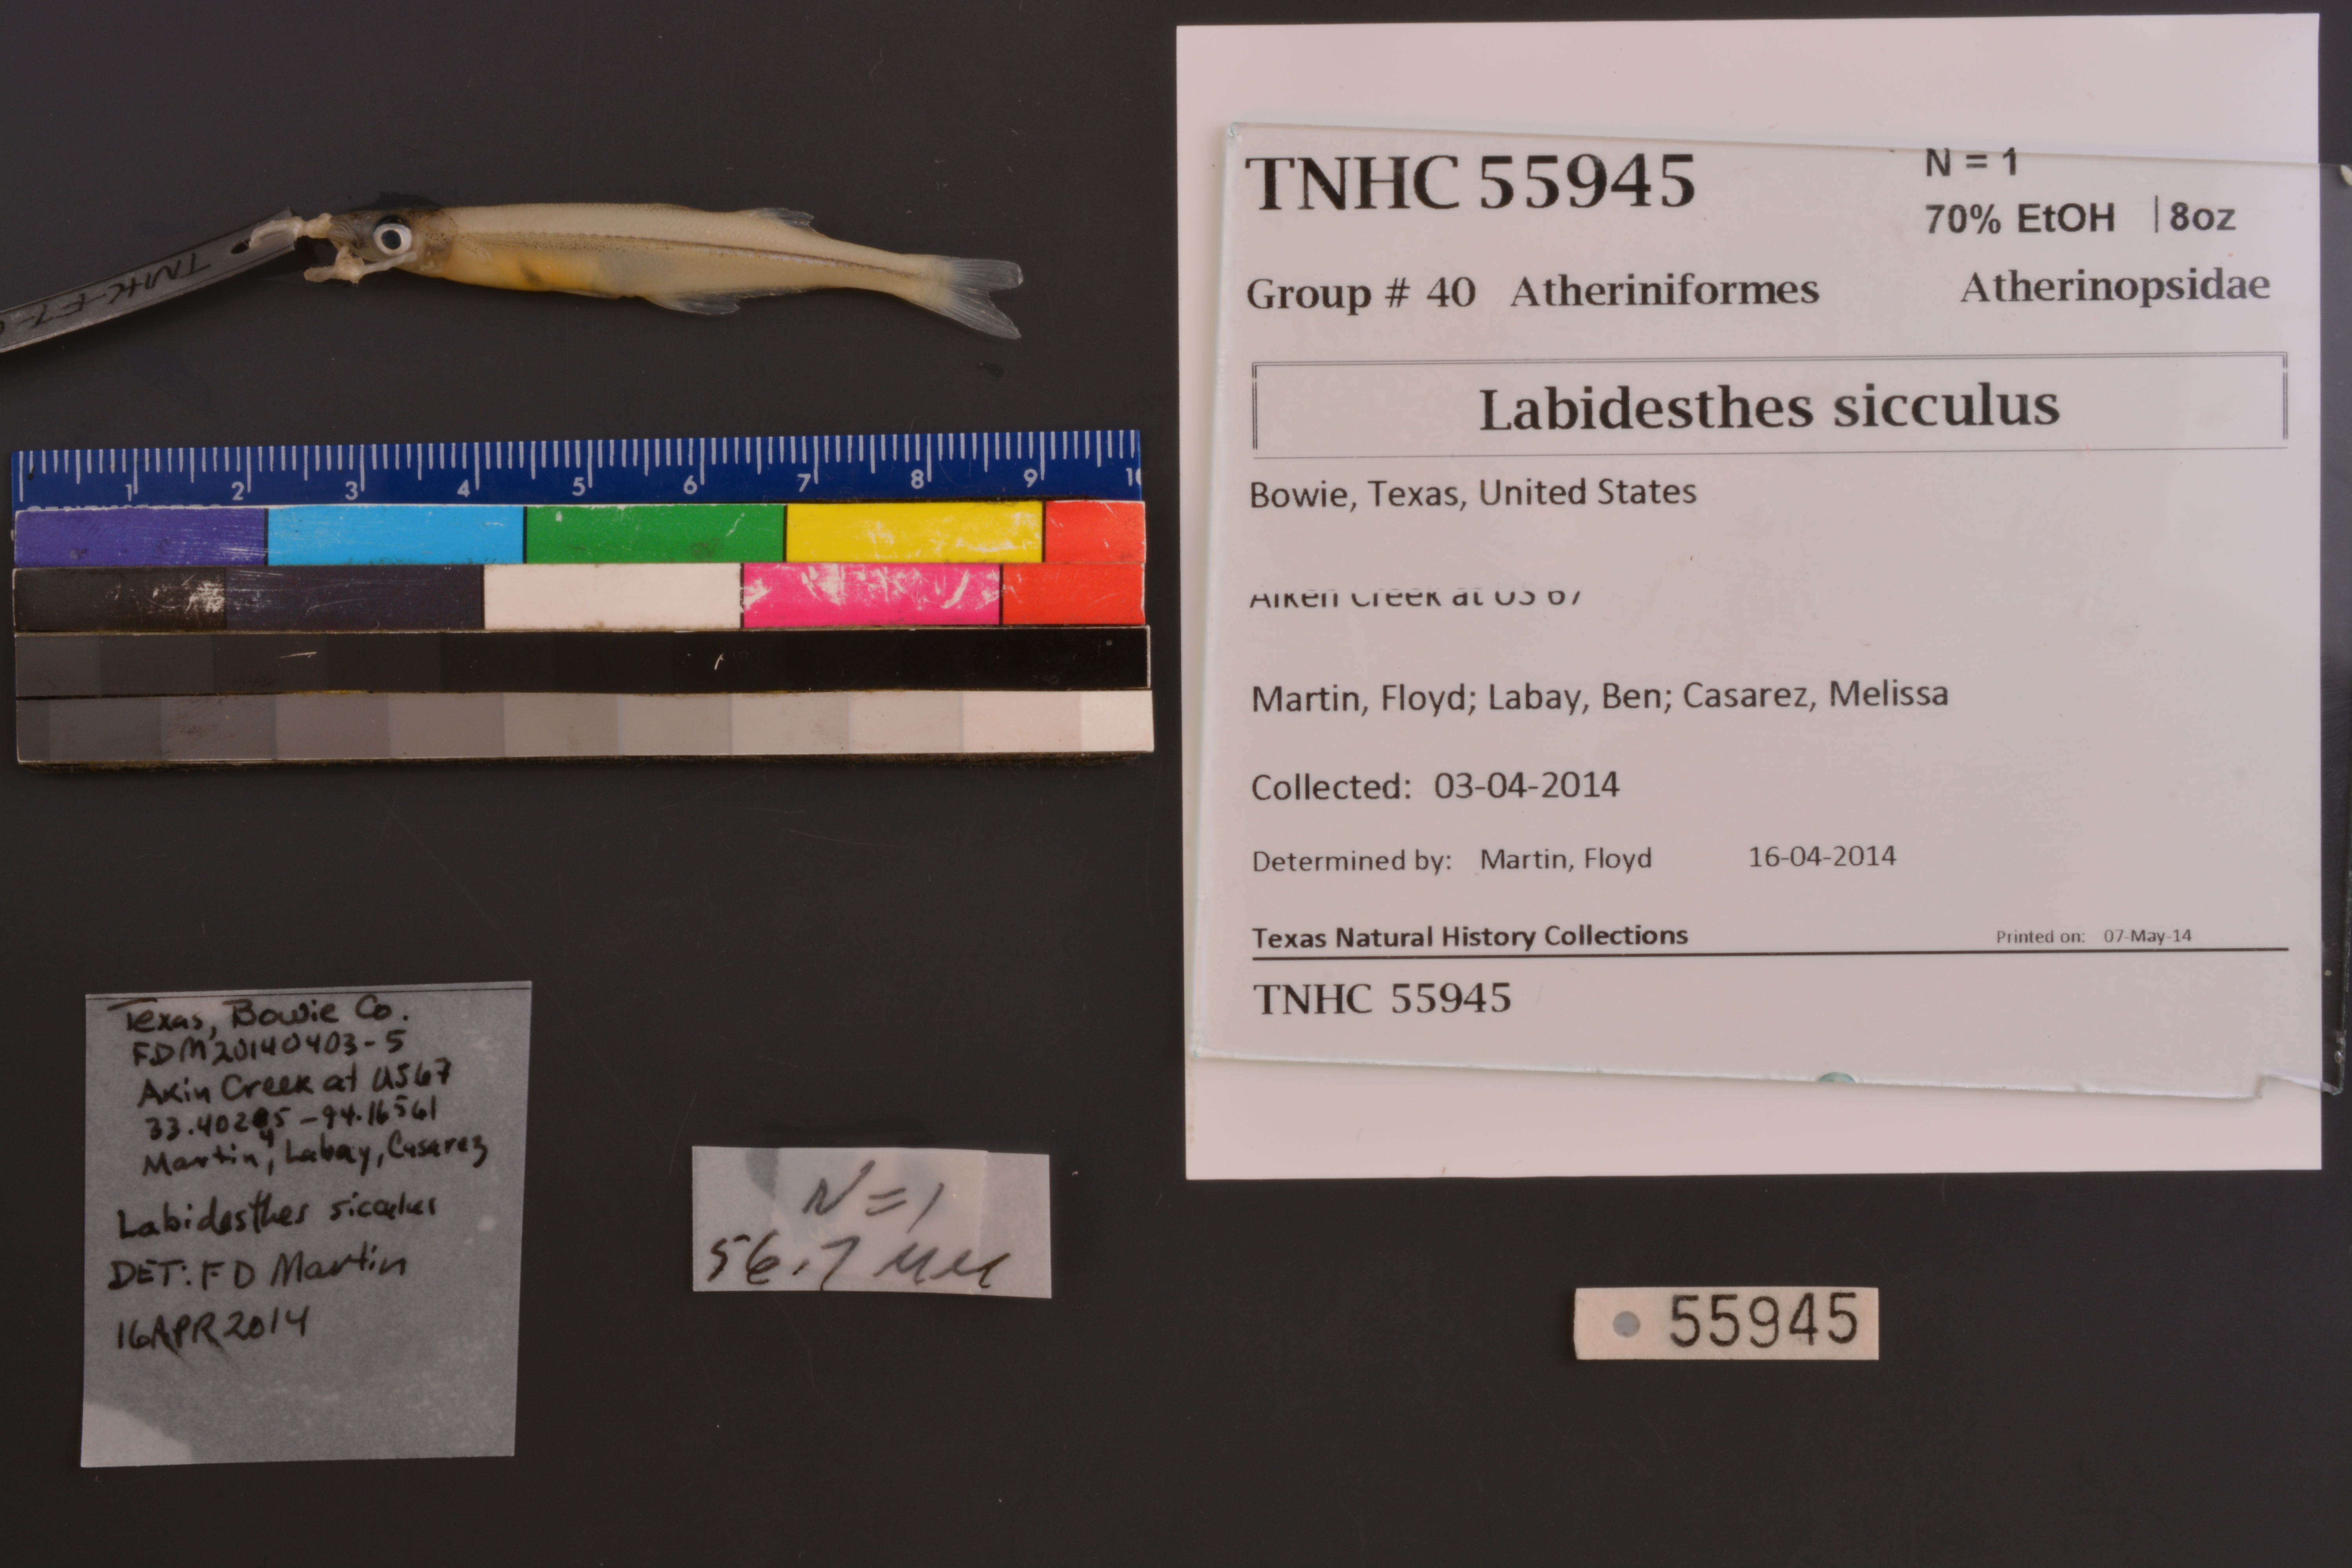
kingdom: Animalia
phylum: Chordata
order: Atheriniformes
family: Atherinopsidae
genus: Labidesthes
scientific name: Labidesthes sicculus
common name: Brook silverside
